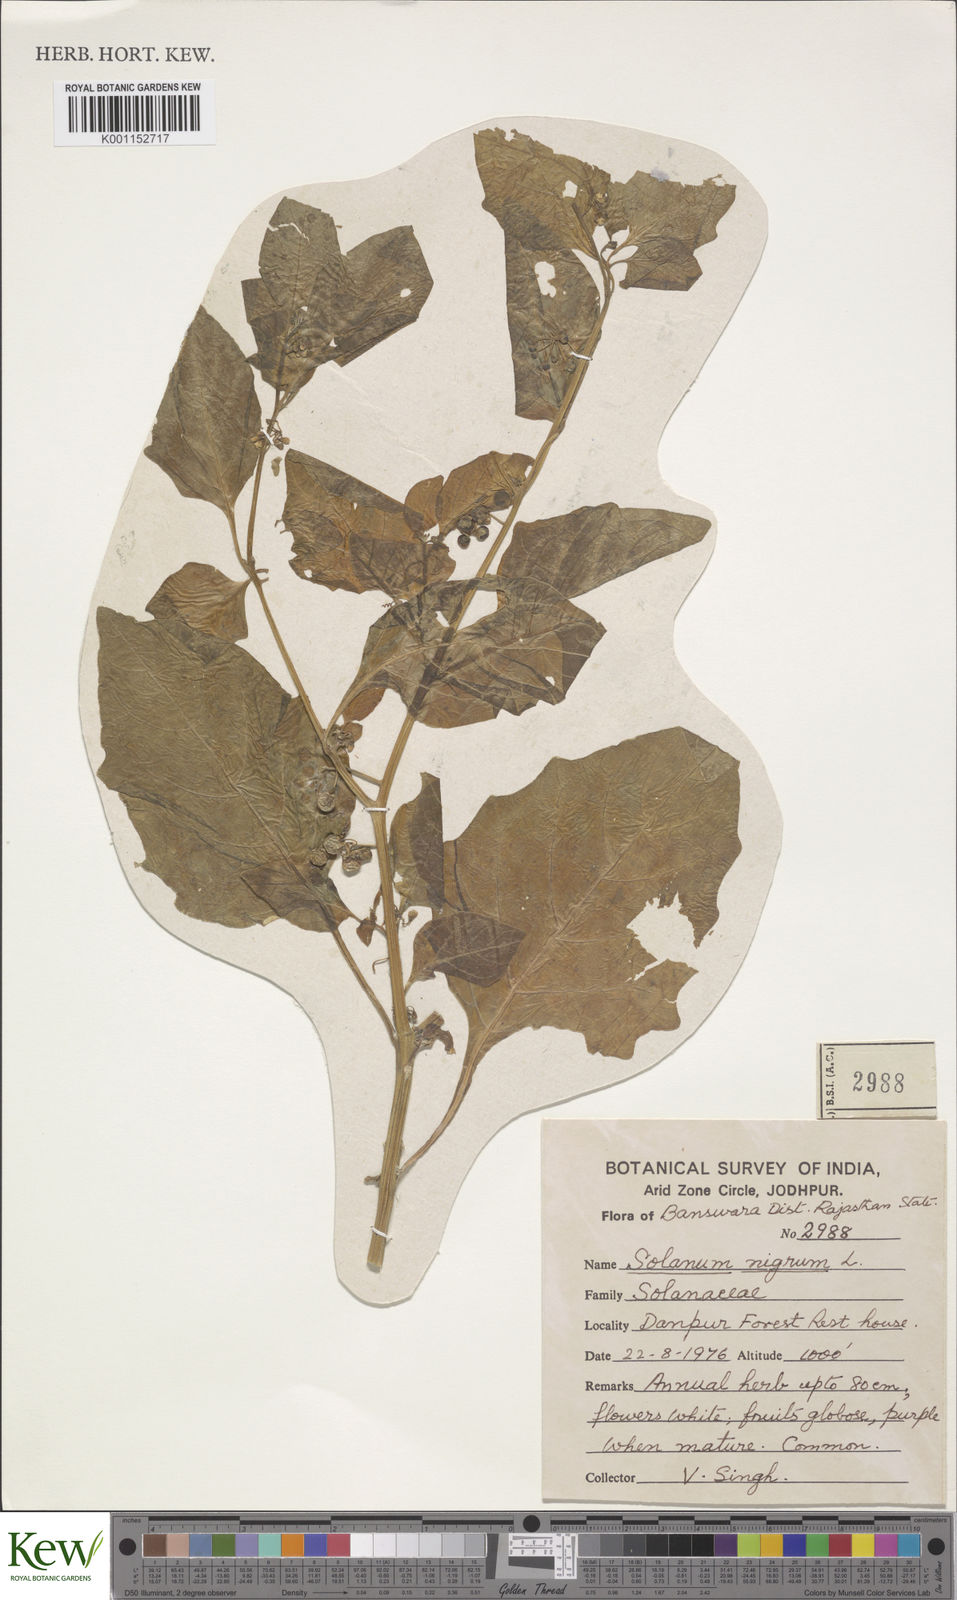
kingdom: Plantae
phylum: Tracheophyta
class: Magnoliopsida
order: Solanales
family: Solanaceae
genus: Solanum
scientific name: Solanum nigrum
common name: Black nightshade
